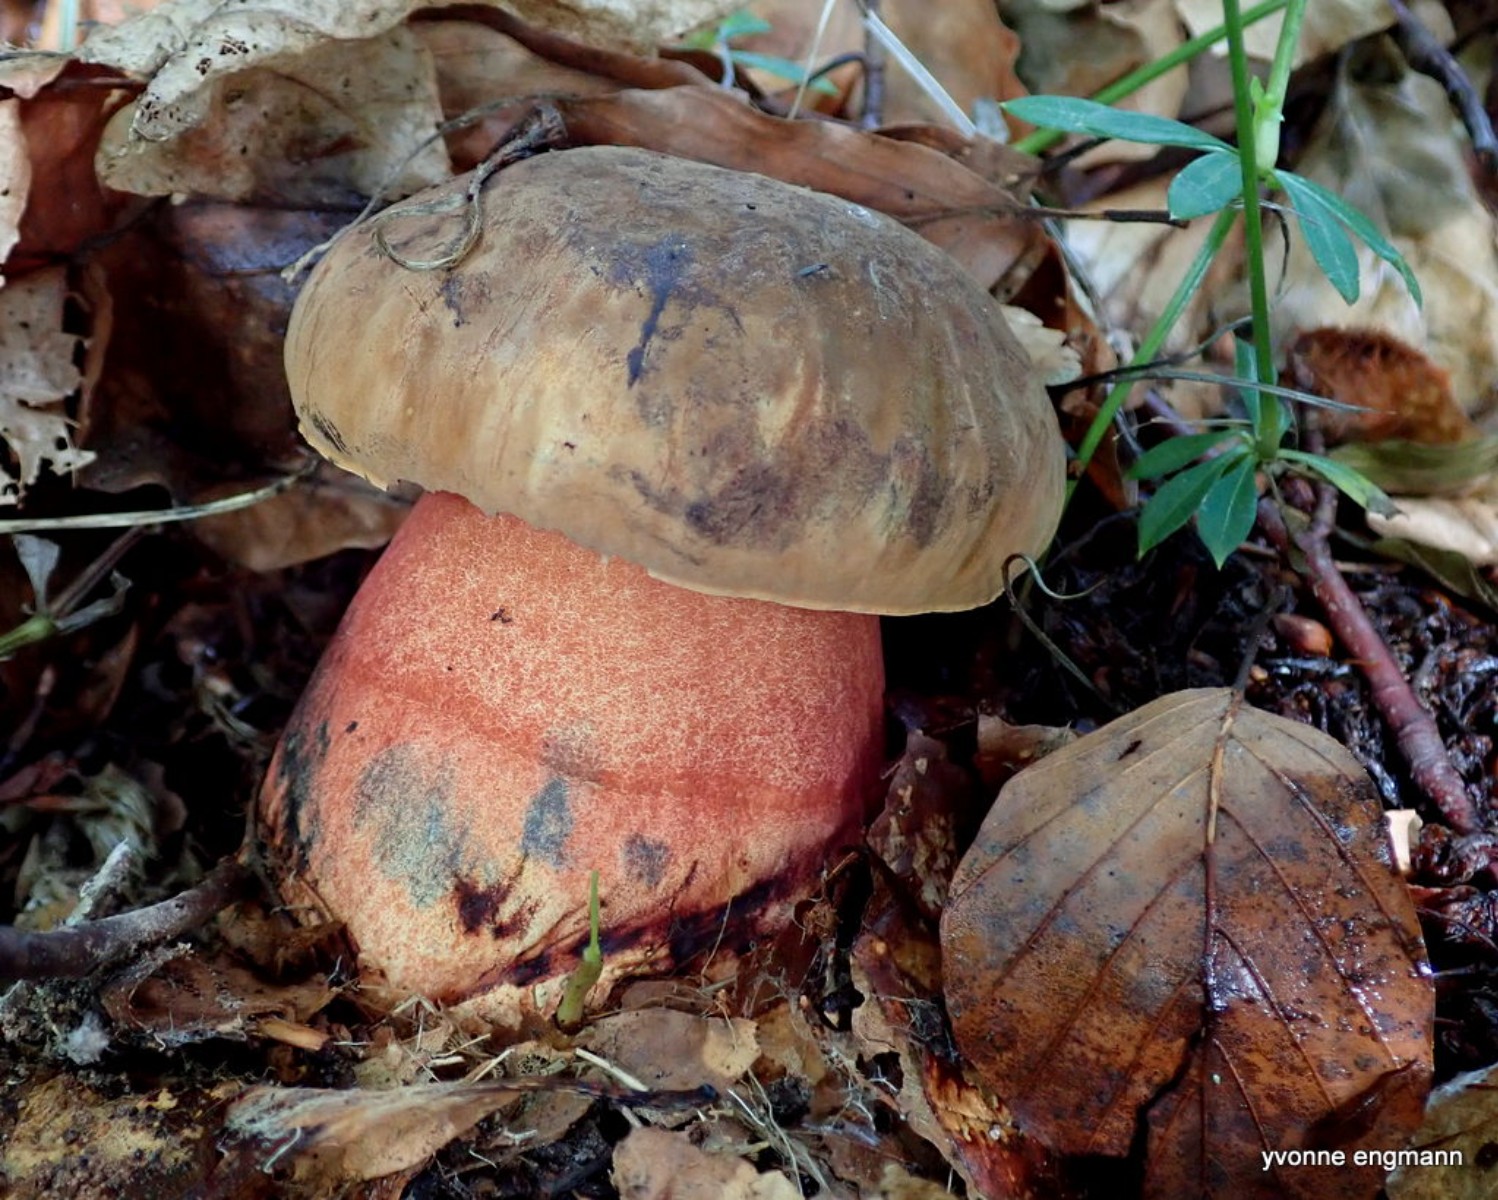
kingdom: Fungi
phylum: Basidiomycota
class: Agaricomycetes
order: Boletales
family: Boletaceae
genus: Neoboletus
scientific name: Neoboletus erythropus
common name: punktstokket indigorørhat
